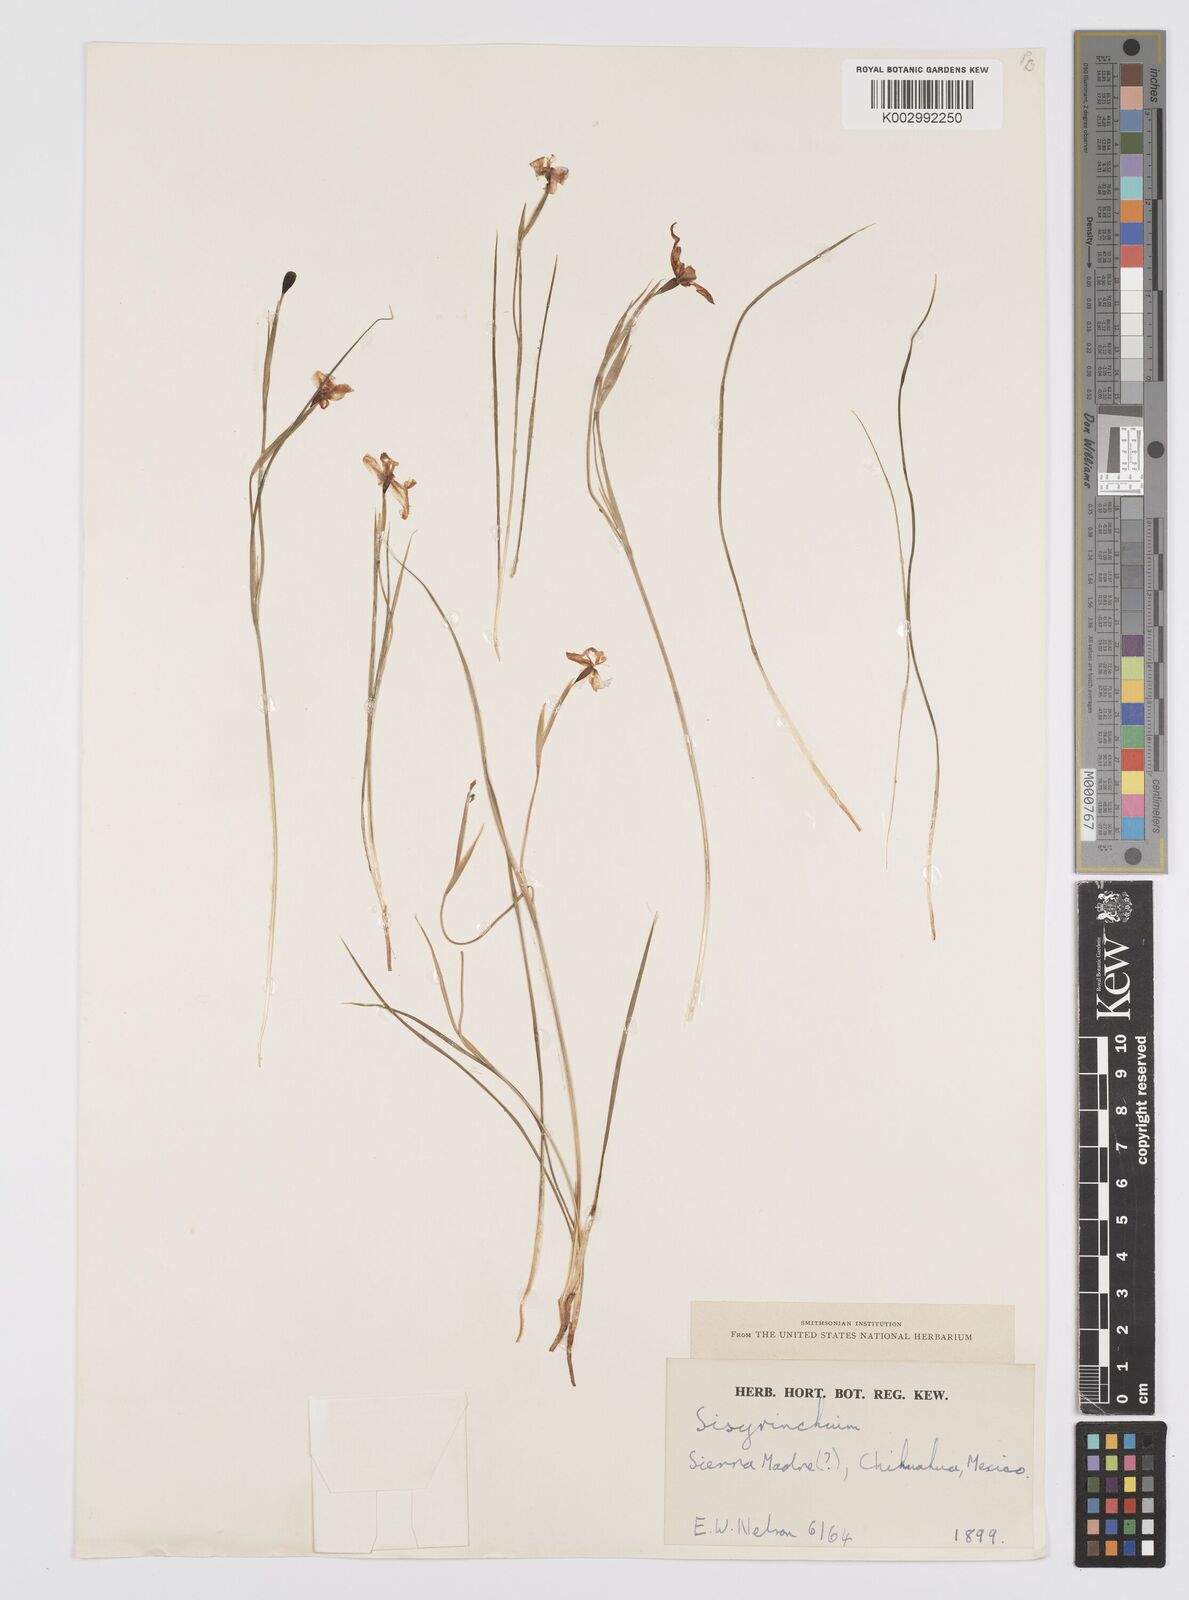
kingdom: Plantae
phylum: Tracheophyta
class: Liliopsida
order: Asparagales
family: Iridaceae
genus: Sisyrinchium
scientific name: Sisyrinchium
